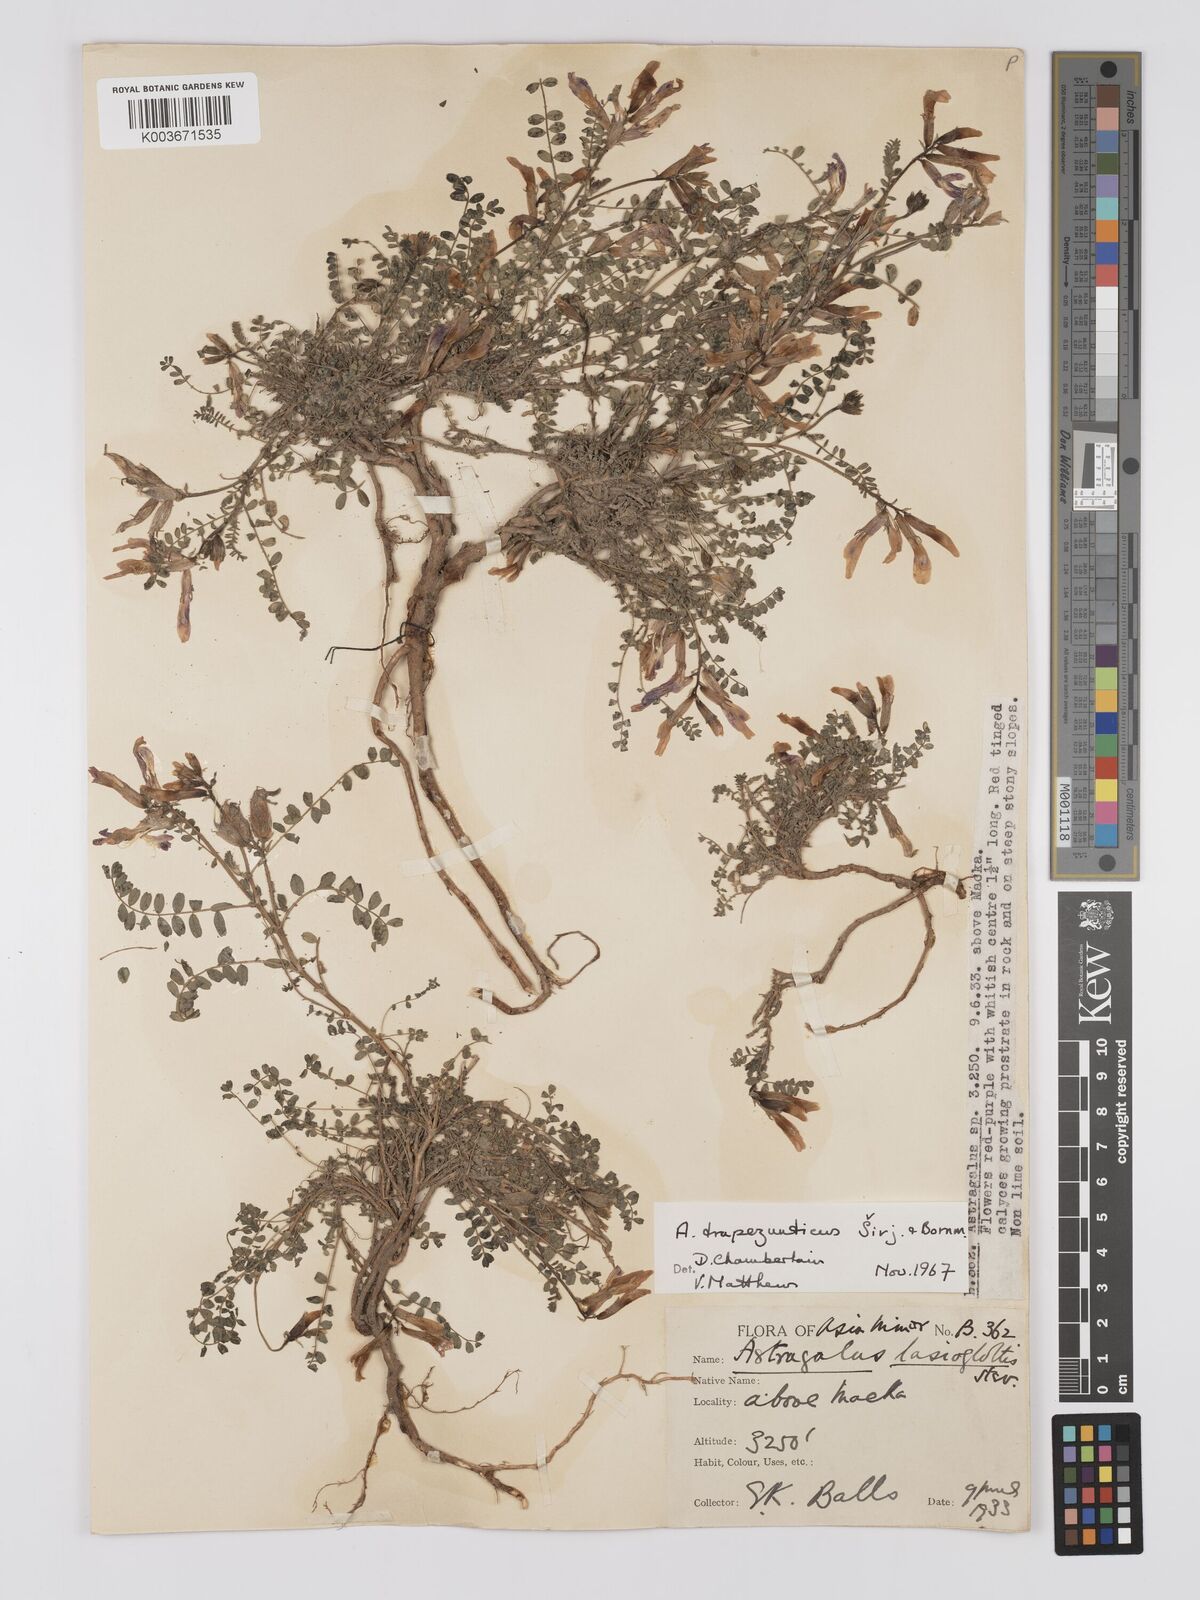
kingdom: Plantae
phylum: Tracheophyta
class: Magnoliopsida
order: Fabales
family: Fabaceae
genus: Astragalus
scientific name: Astragalus viridissimus
